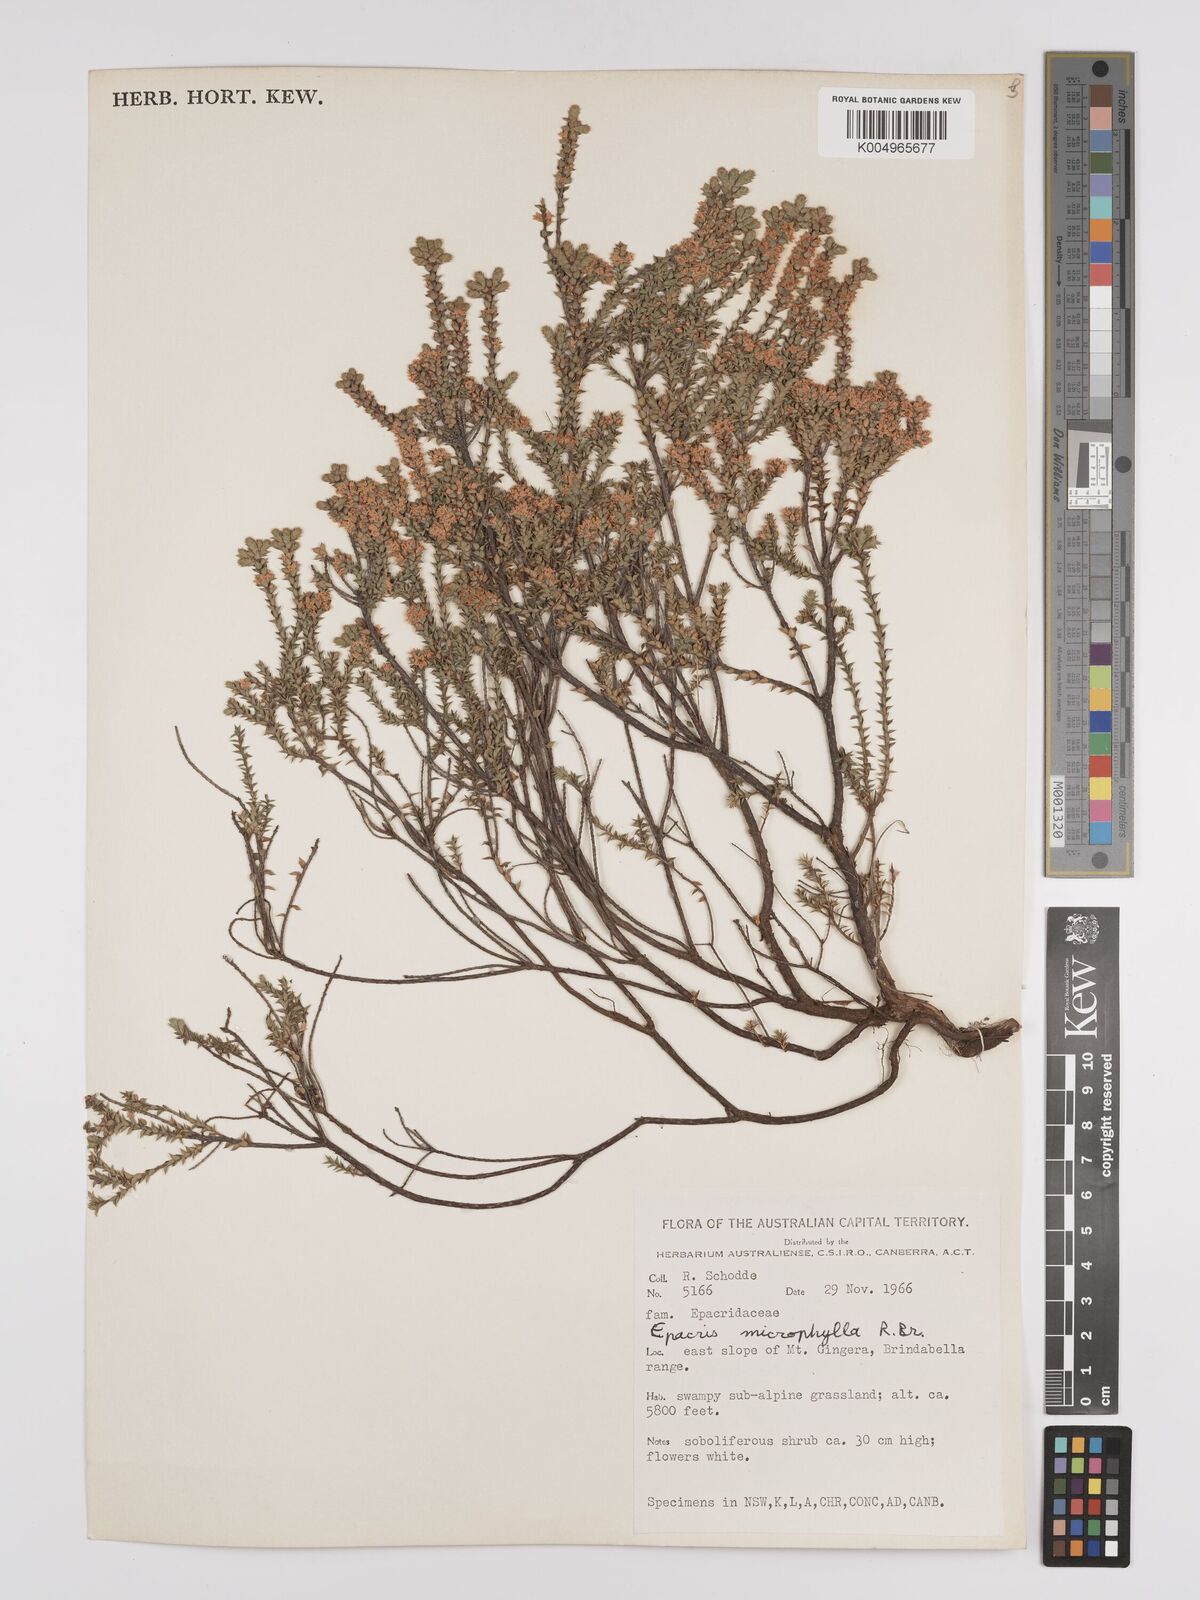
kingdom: Plantae
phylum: Tracheophyta
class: Magnoliopsida
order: Ericales
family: Ericaceae
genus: Epacris
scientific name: Epacris
